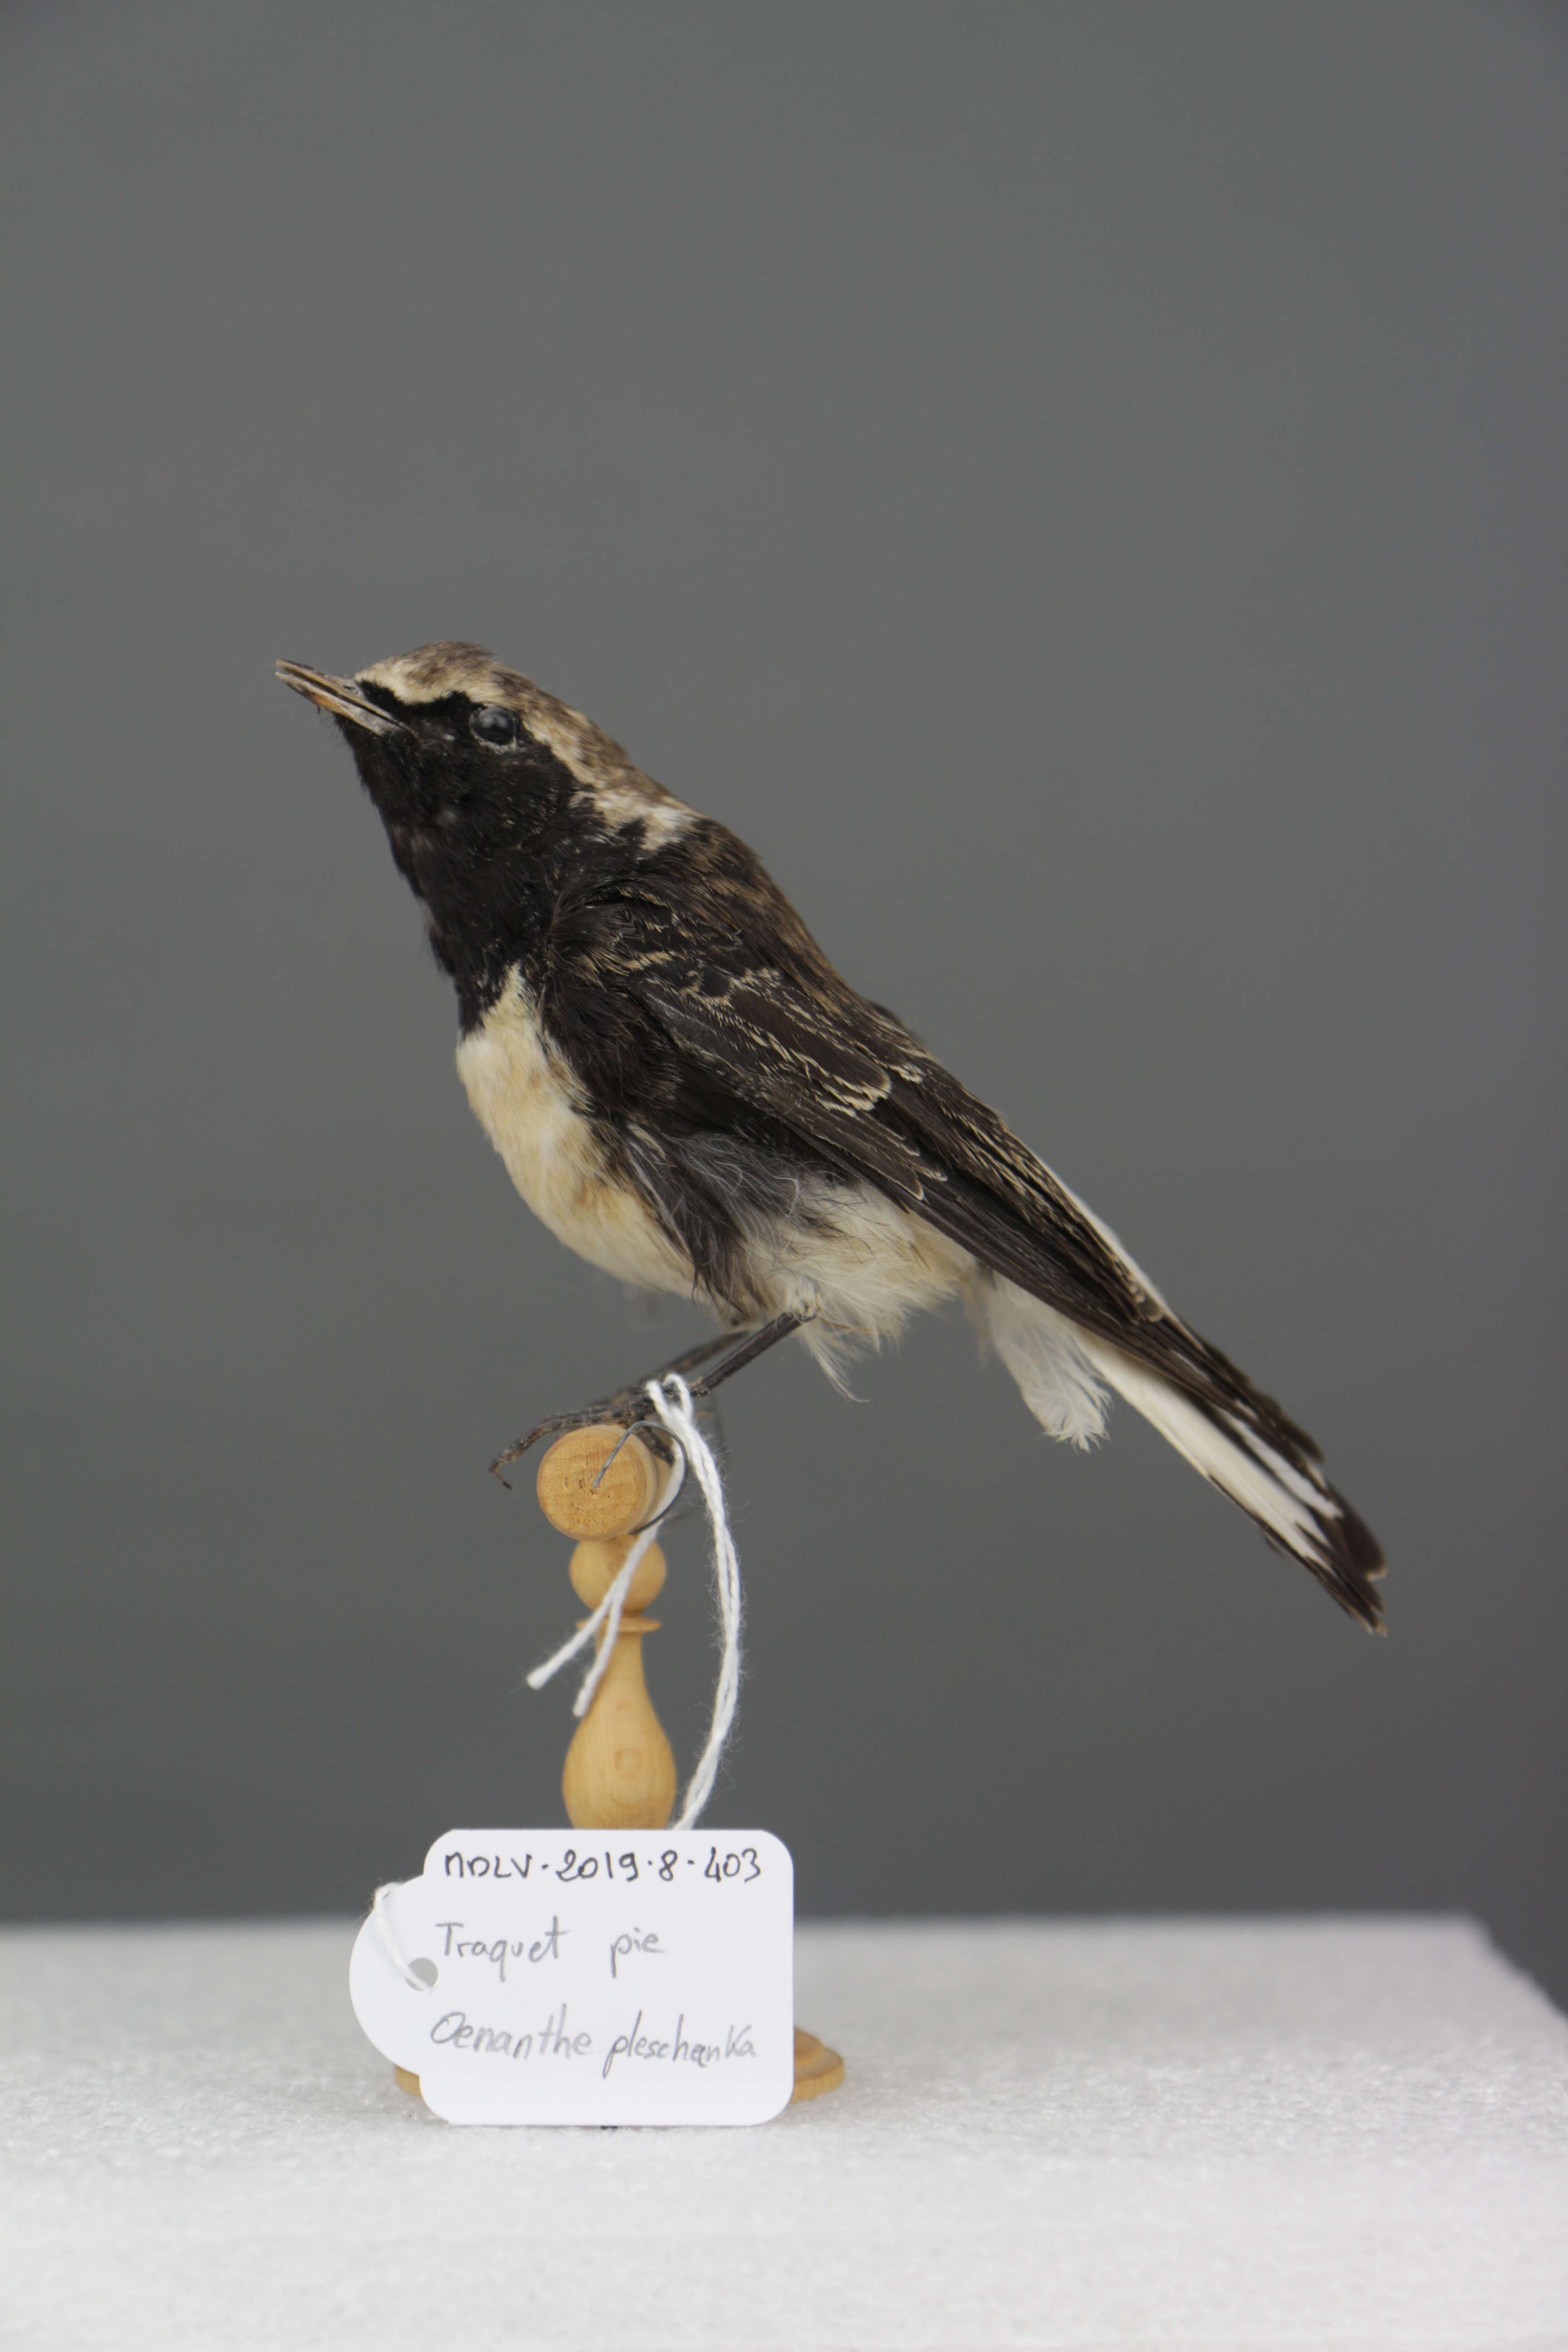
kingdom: Animalia
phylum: Chordata
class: Aves
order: Passeriformes
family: Muscicapidae
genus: Oenanthe
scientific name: Oenanthe pleschanka
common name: Pied wheatear
